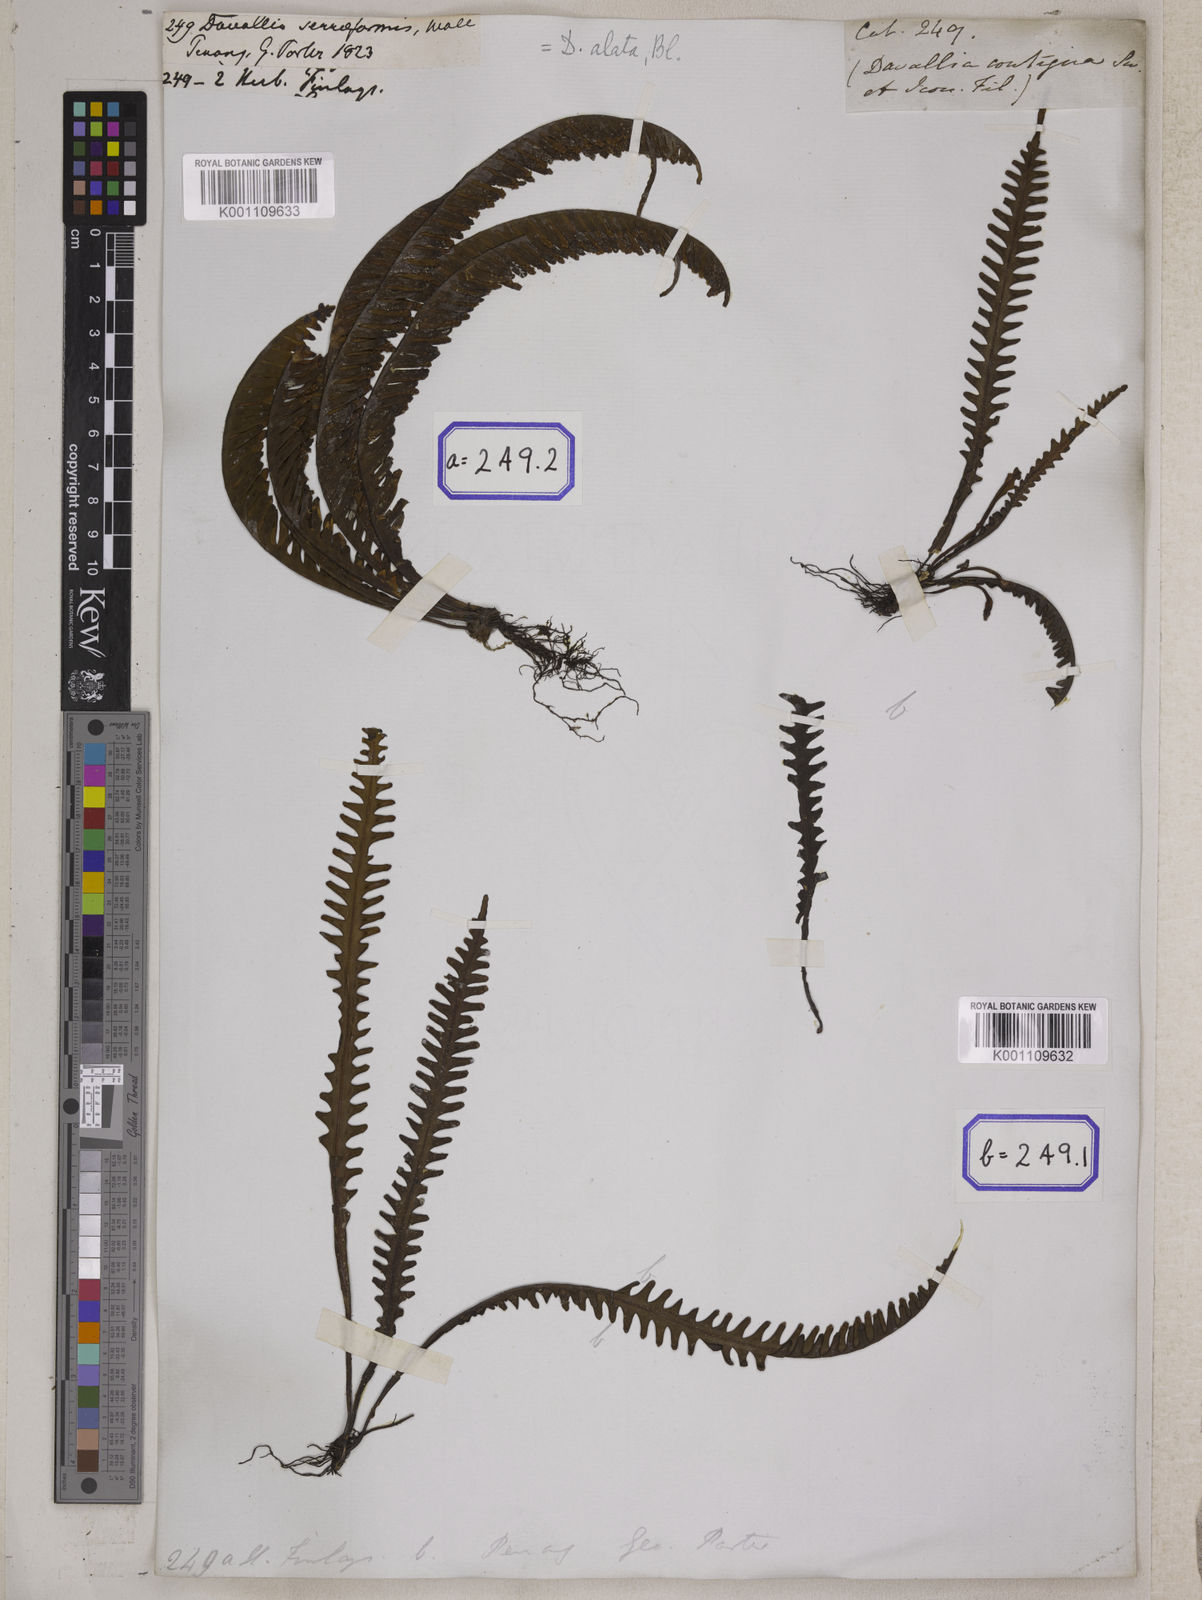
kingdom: Plantae
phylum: Tracheophyta
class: Polypodiopsida
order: Polypodiales
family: Polypodiaceae
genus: Prosaptia
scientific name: Prosaptia alata
